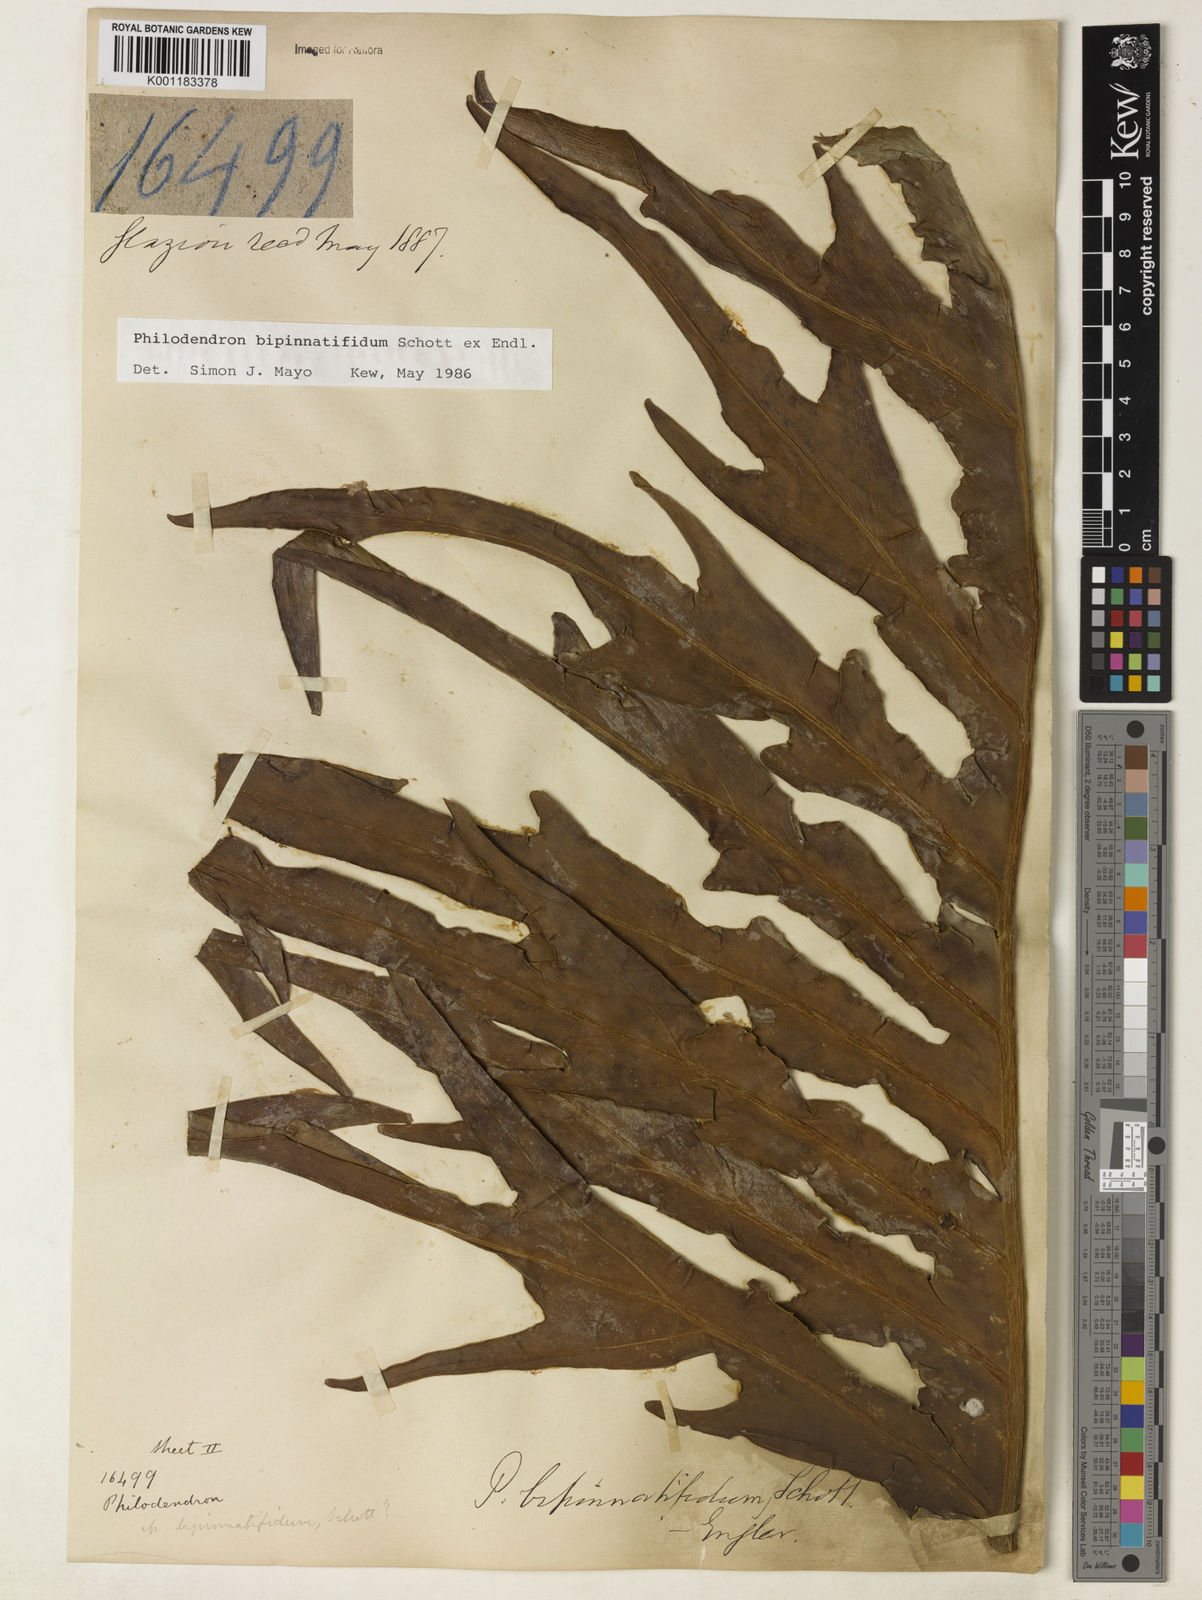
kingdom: Plantae
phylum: Tracheophyta
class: Liliopsida
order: Alismatales
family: Araceae
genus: Philodendron
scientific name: Philodendron
